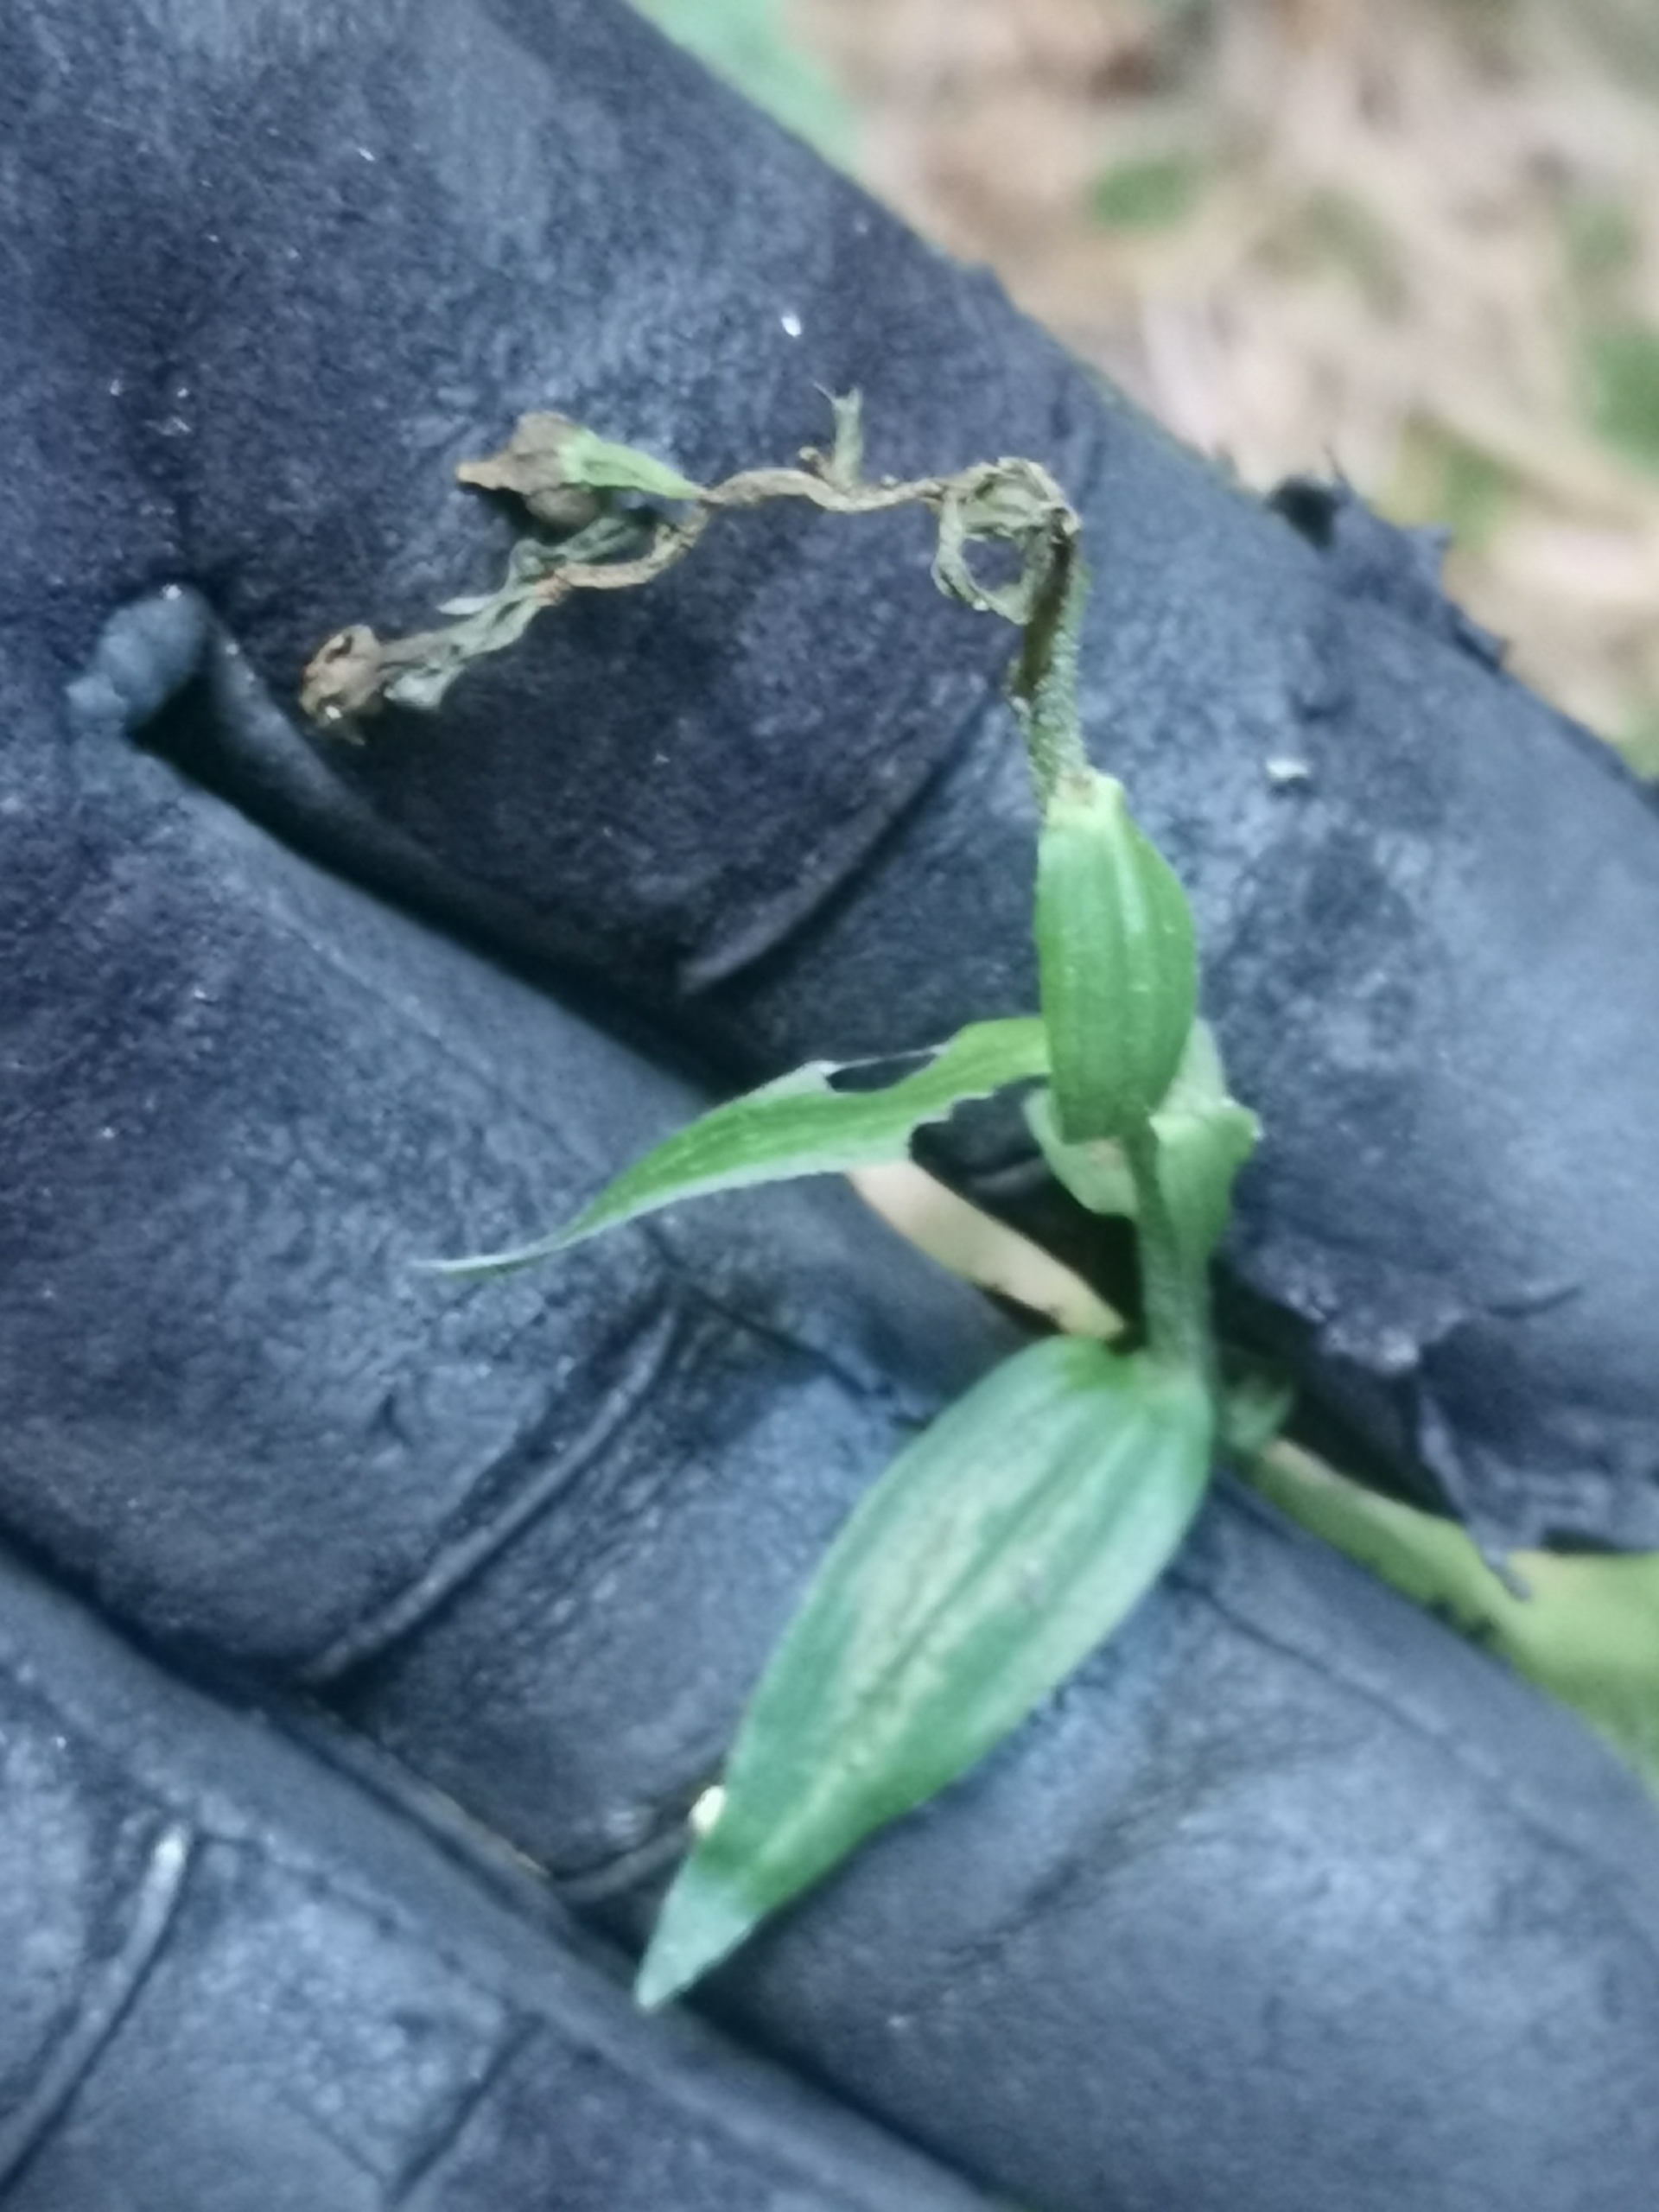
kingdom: Plantae
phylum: Tracheophyta
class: Liliopsida
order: Asparagales
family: Orchidaceae
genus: Epipactis
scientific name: Epipactis helleborine
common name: Skov-hullæbe
